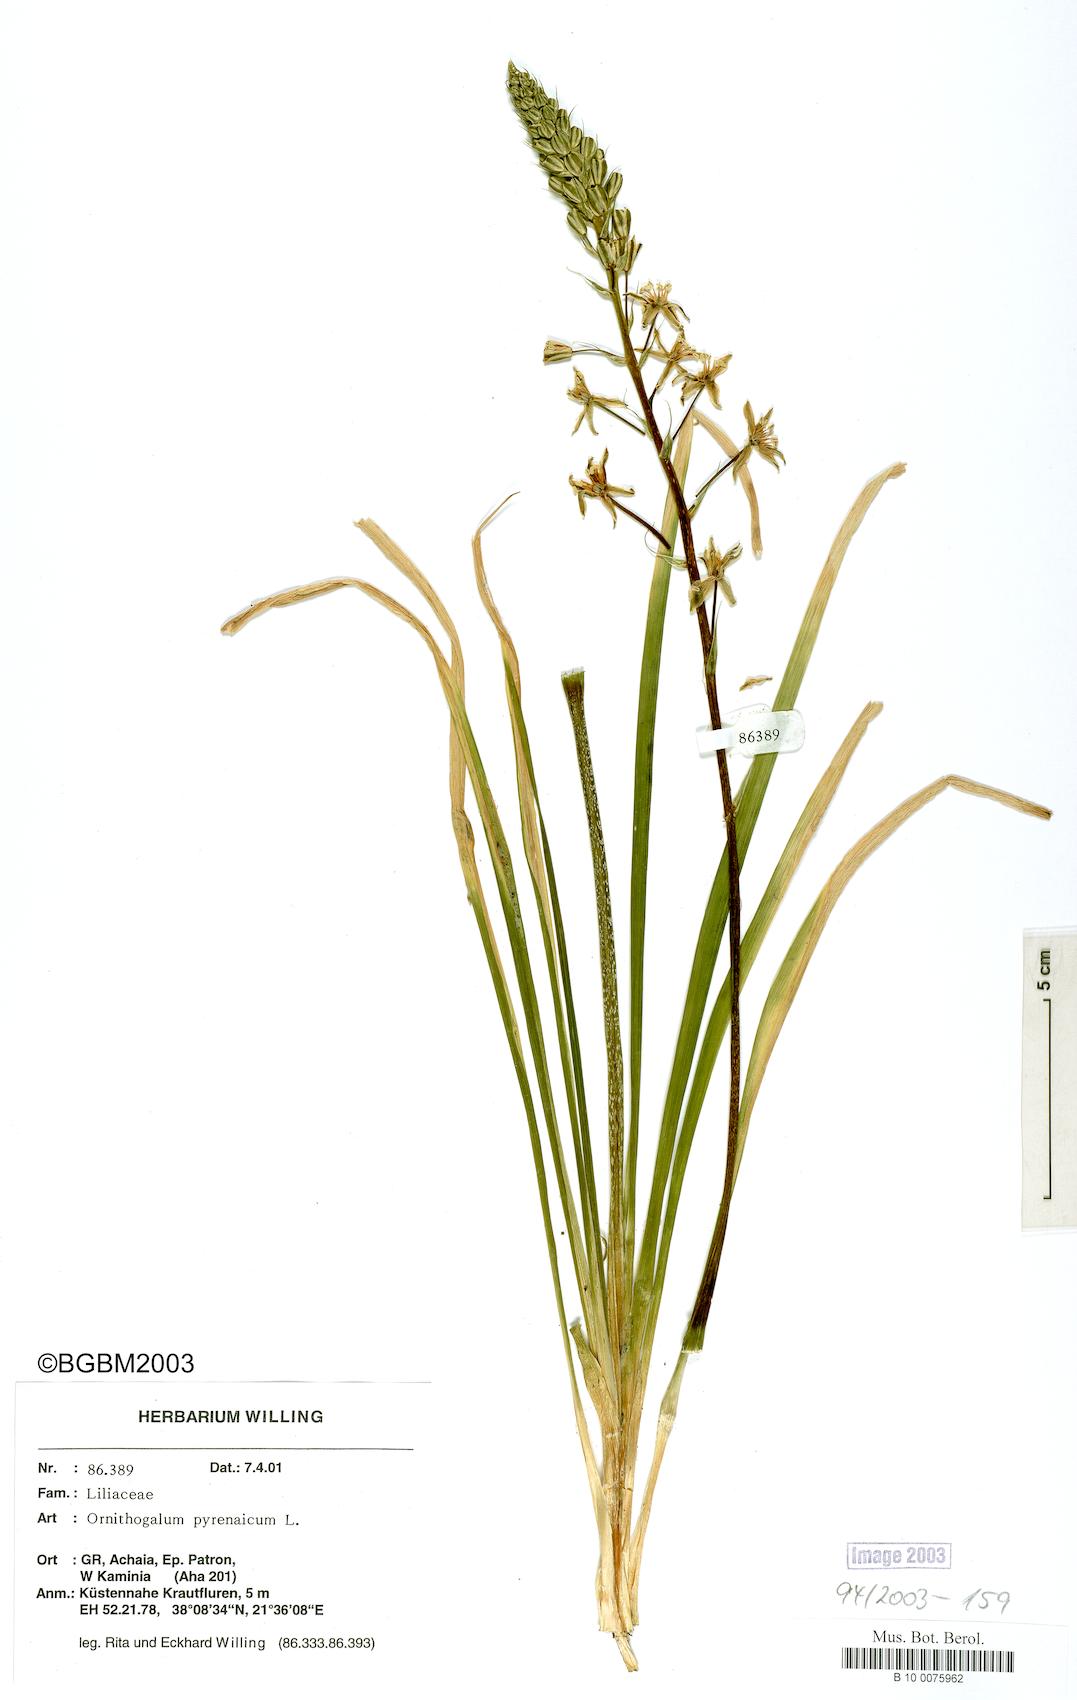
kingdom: Plantae
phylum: Tracheophyta
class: Liliopsida
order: Asparagales
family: Asparagaceae
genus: Ornithogalum
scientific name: Ornithogalum pyrenaicum
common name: Spiked star-of-bethlehem
